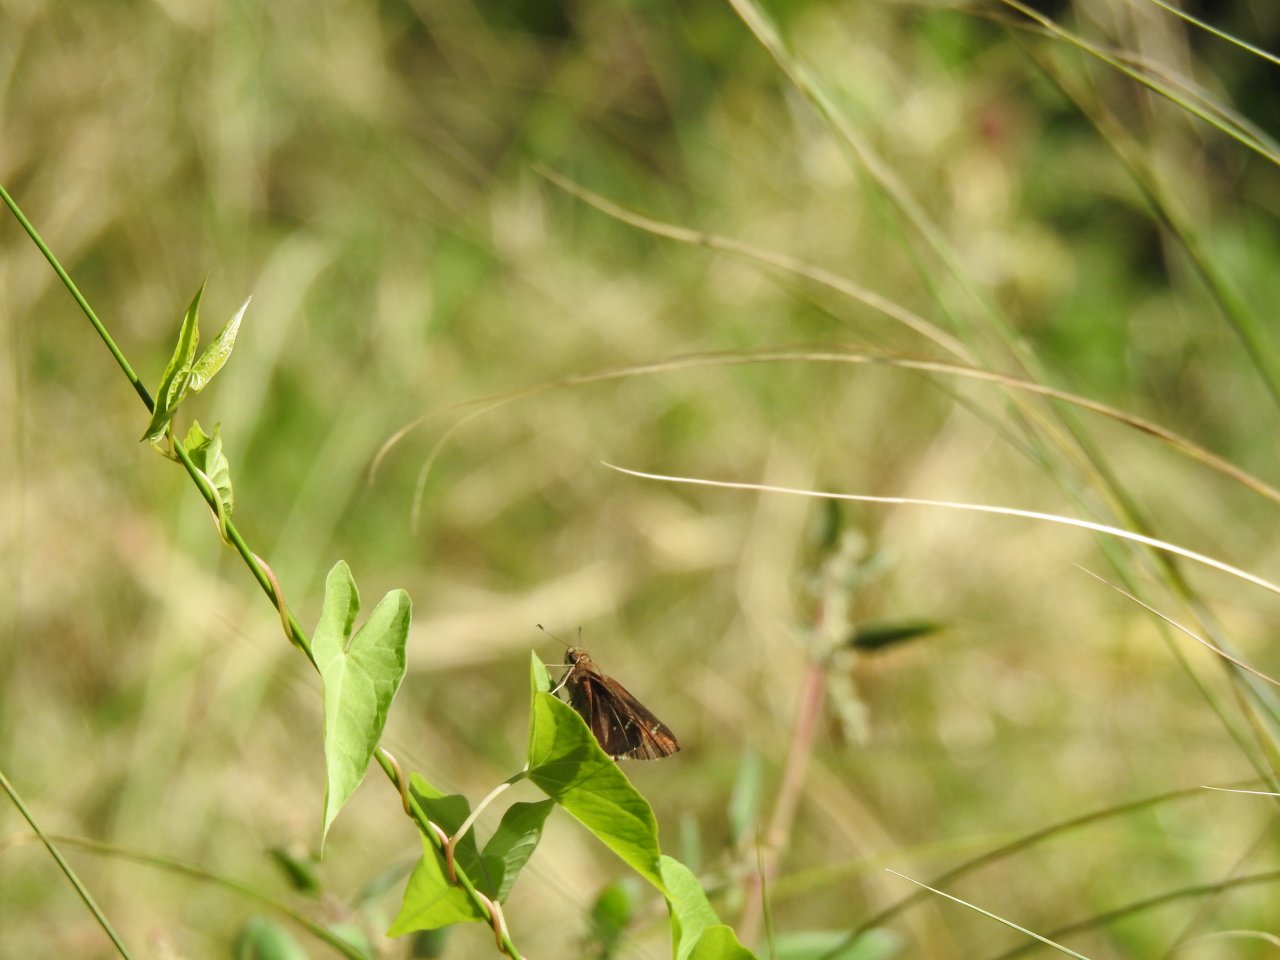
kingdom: Animalia
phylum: Arthropoda
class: Insecta
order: Lepidoptera
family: Hesperiidae
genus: Lerema
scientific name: Lerema accius
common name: Clouded Skipper
